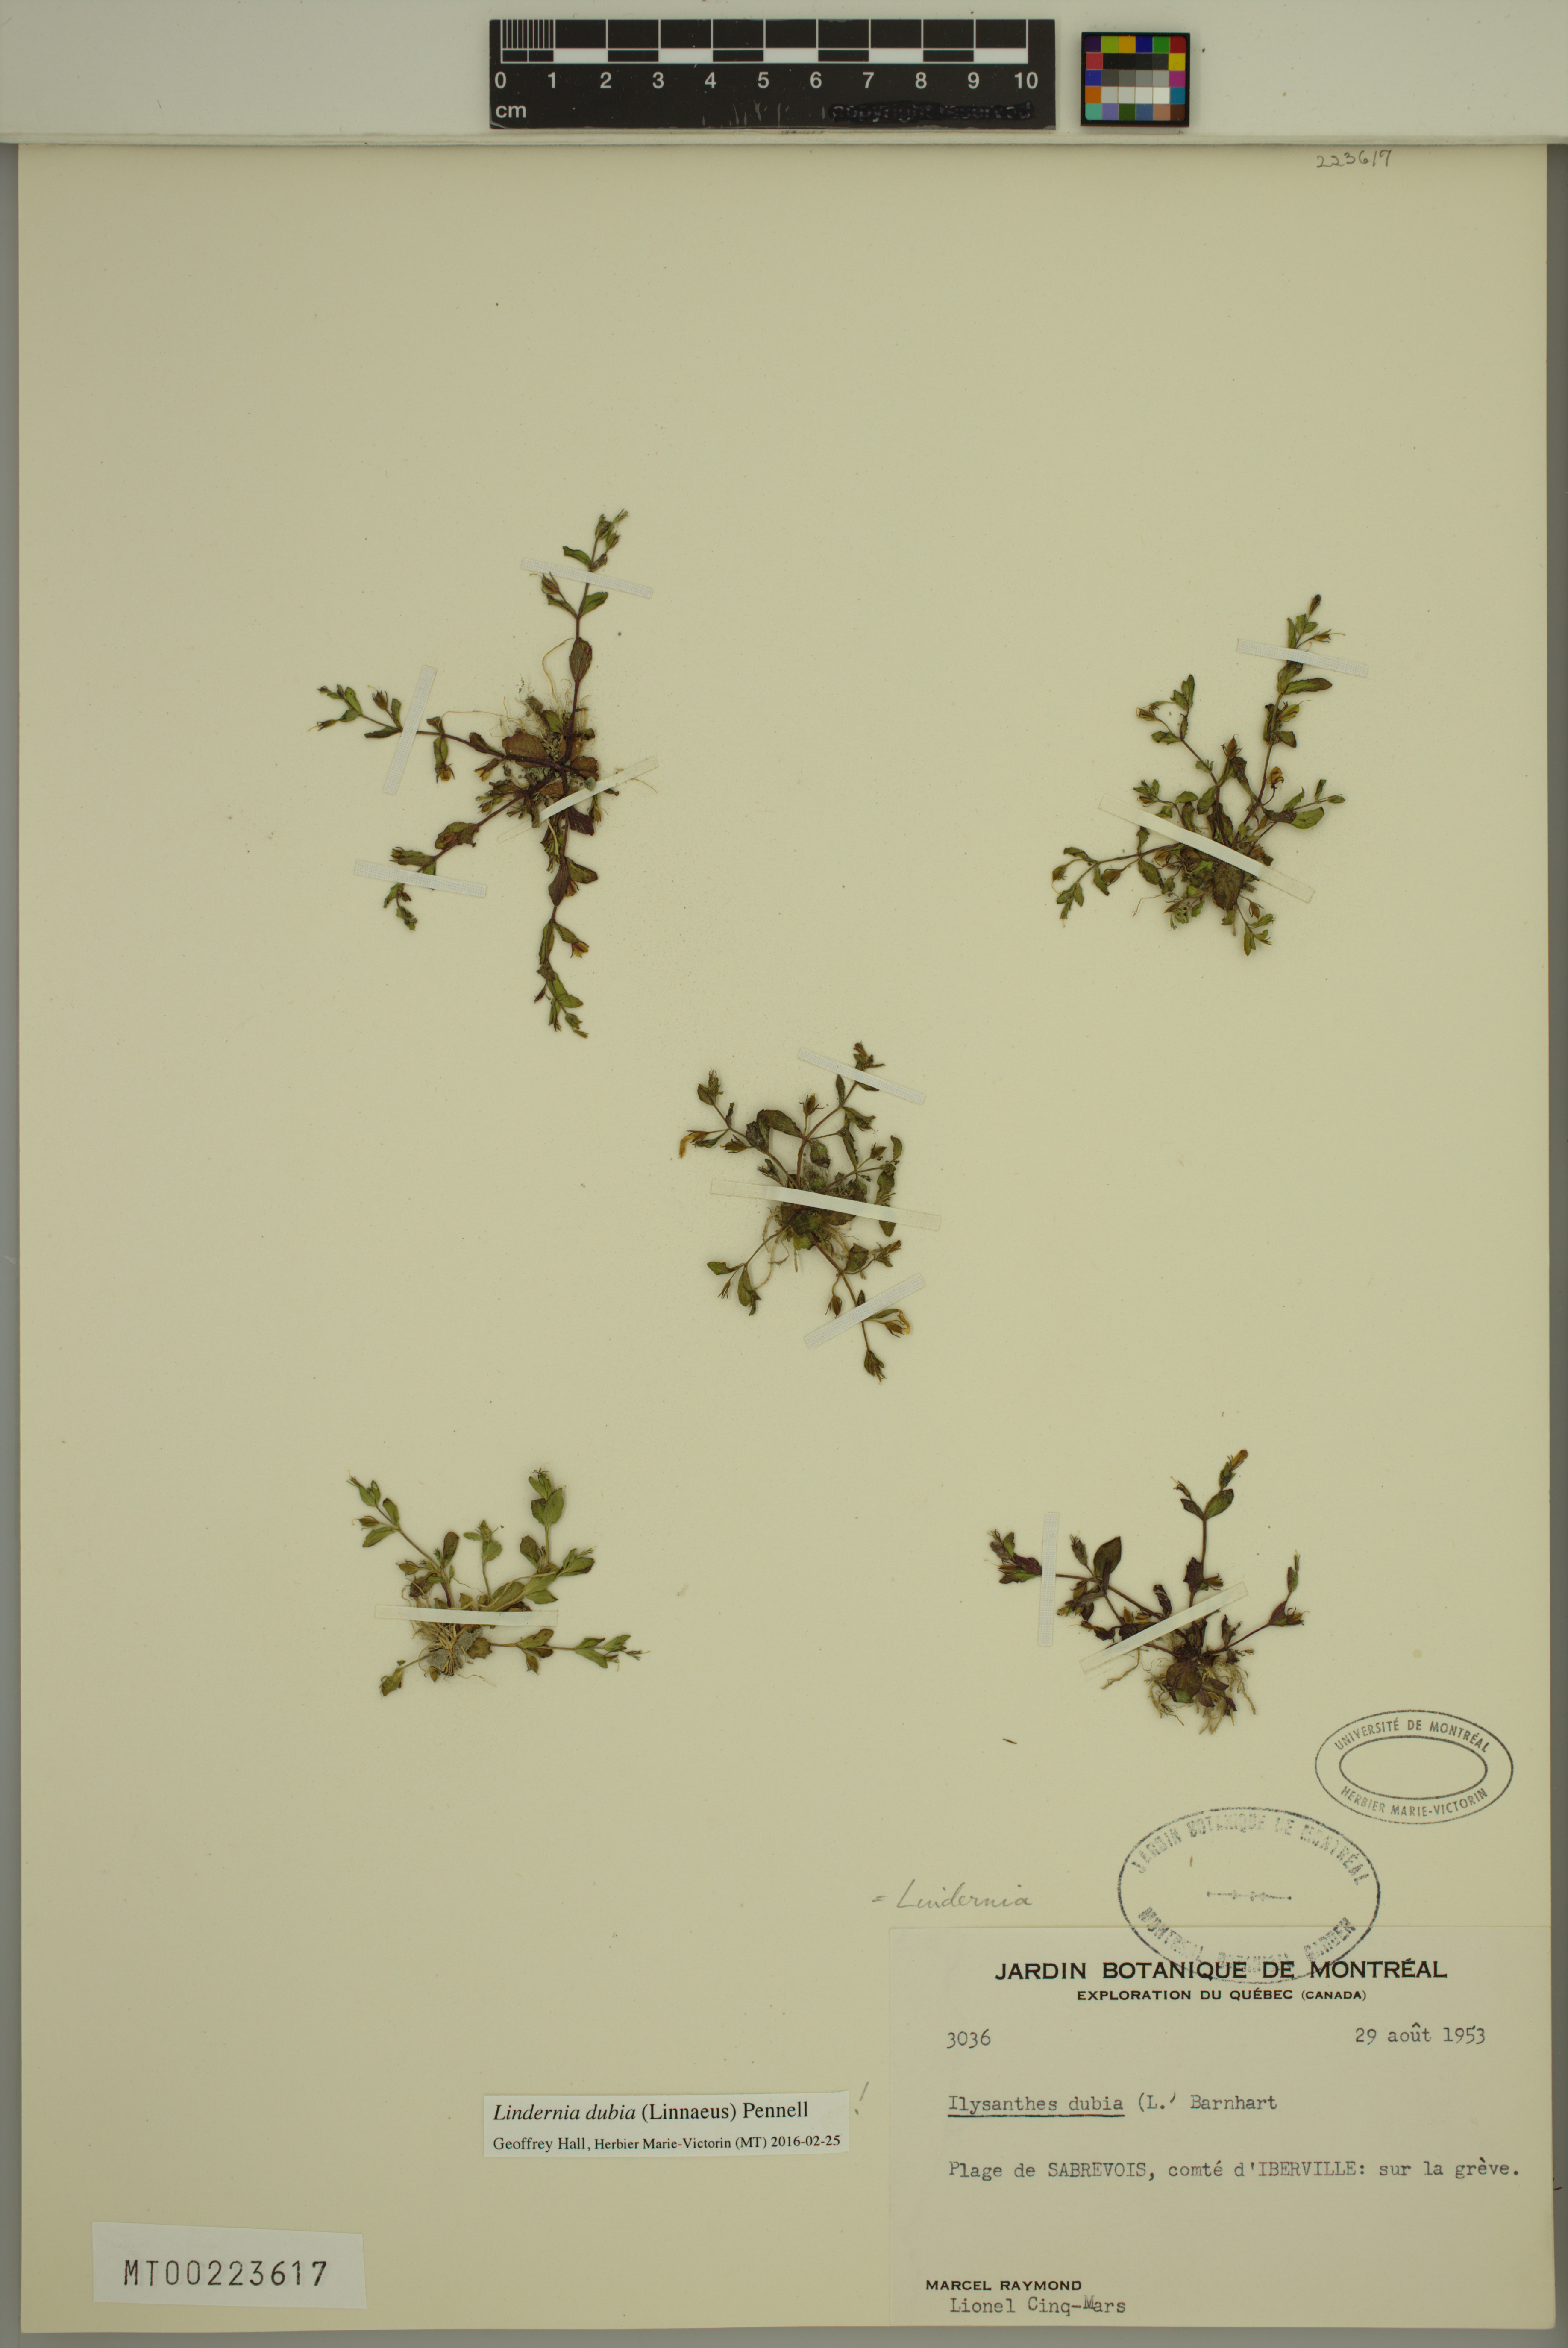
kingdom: Plantae
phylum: Tracheophyta
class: Magnoliopsida
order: Lamiales
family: Linderniaceae
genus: Lindernia
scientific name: Lindernia dubia
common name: Annual false pimpernel
